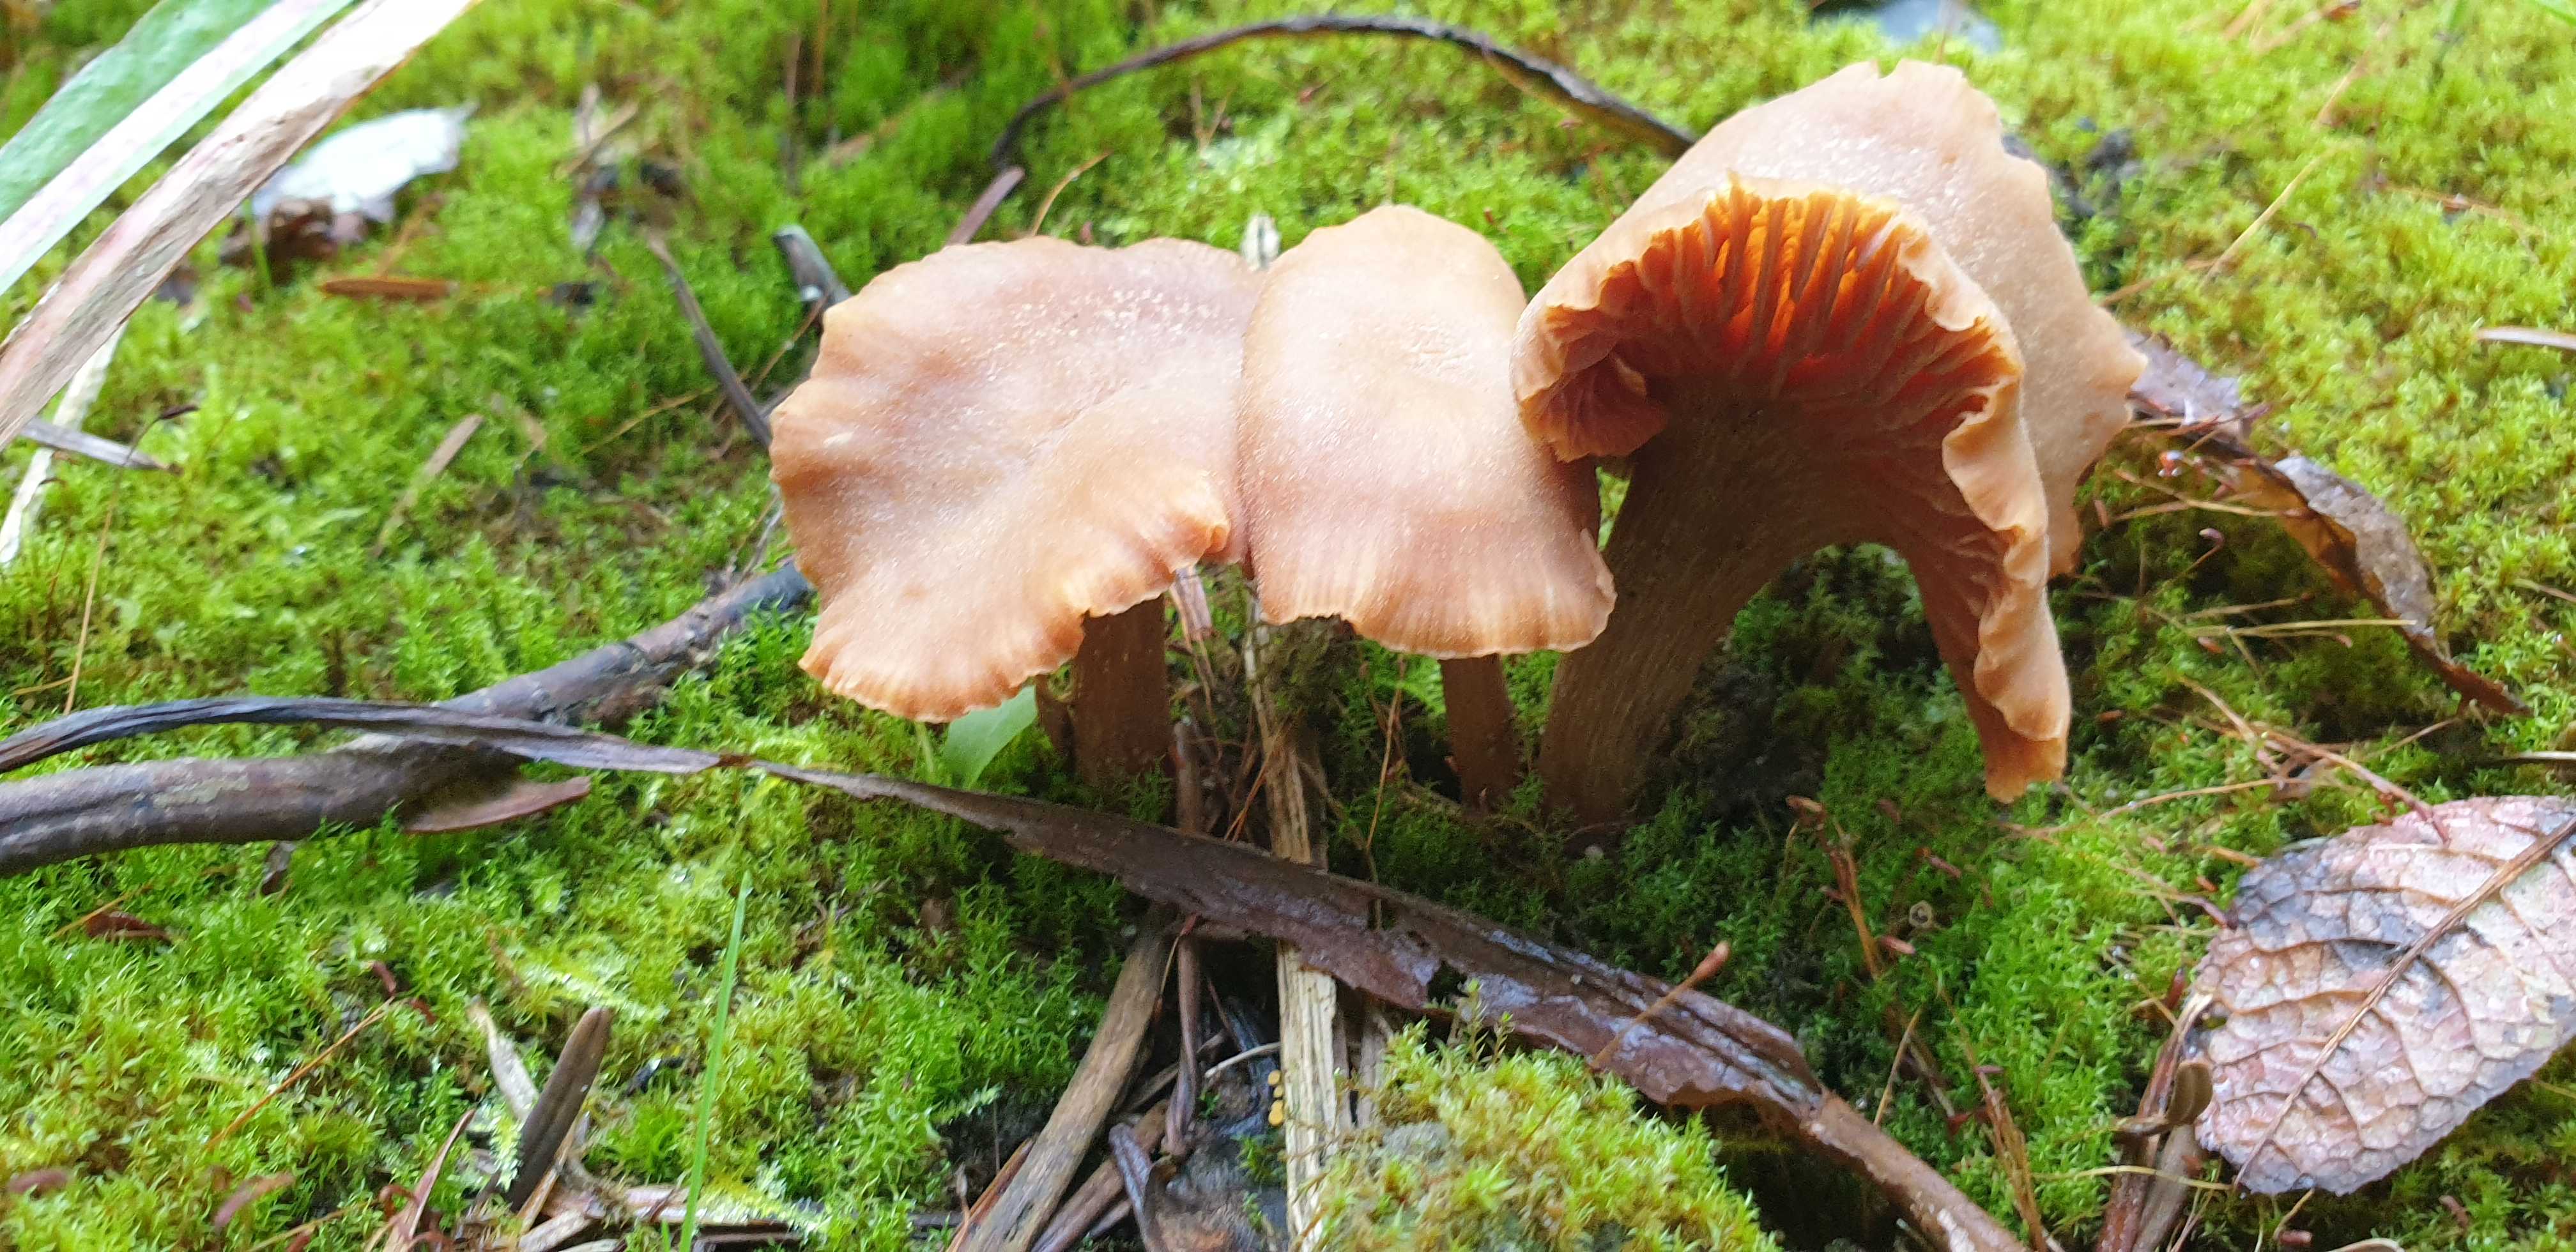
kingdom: Fungi
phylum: Basidiomycota
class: Agaricomycetes
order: Agaricales
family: Hydnangiaceae
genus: Laccaria
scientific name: Laccaria laccata
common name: rød ametysthat
